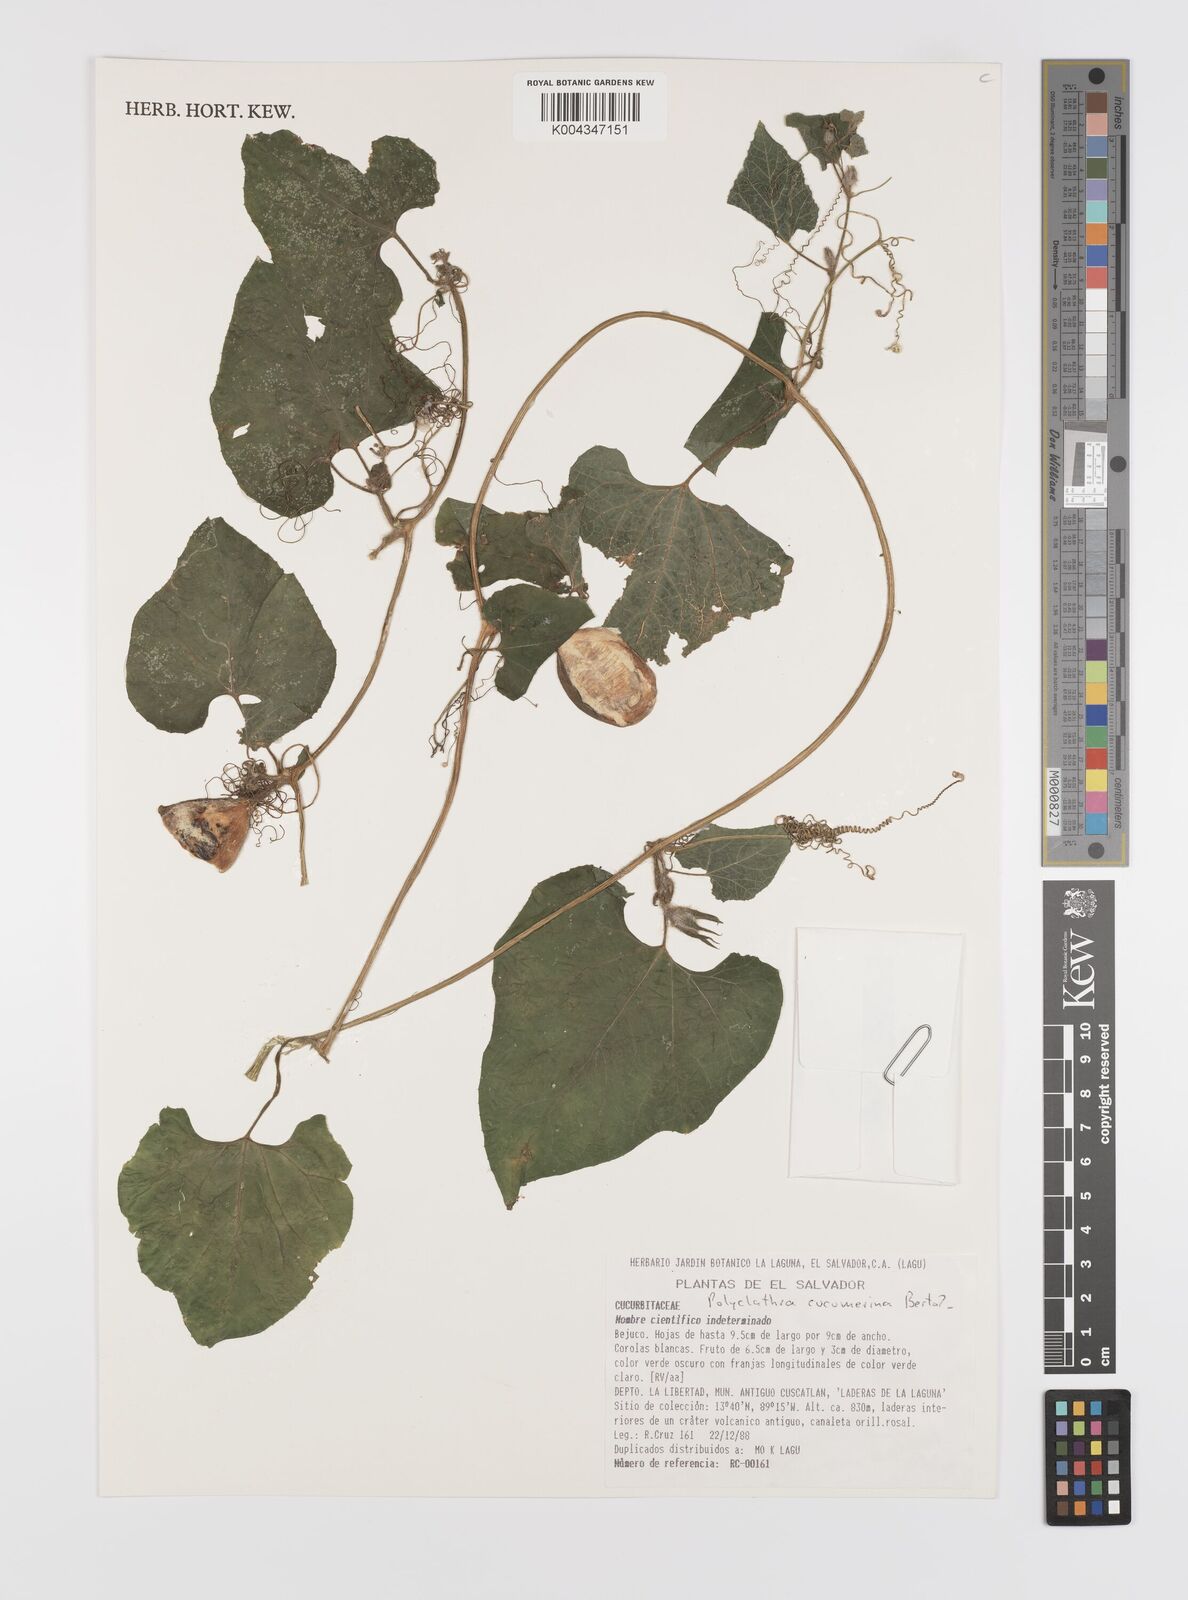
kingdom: Plantae
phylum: Tracheophyta
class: Magnoliopsida
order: Cucurbitales
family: Cucurbitaceae
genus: Polyclathra
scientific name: Polyclathra cucumerina
